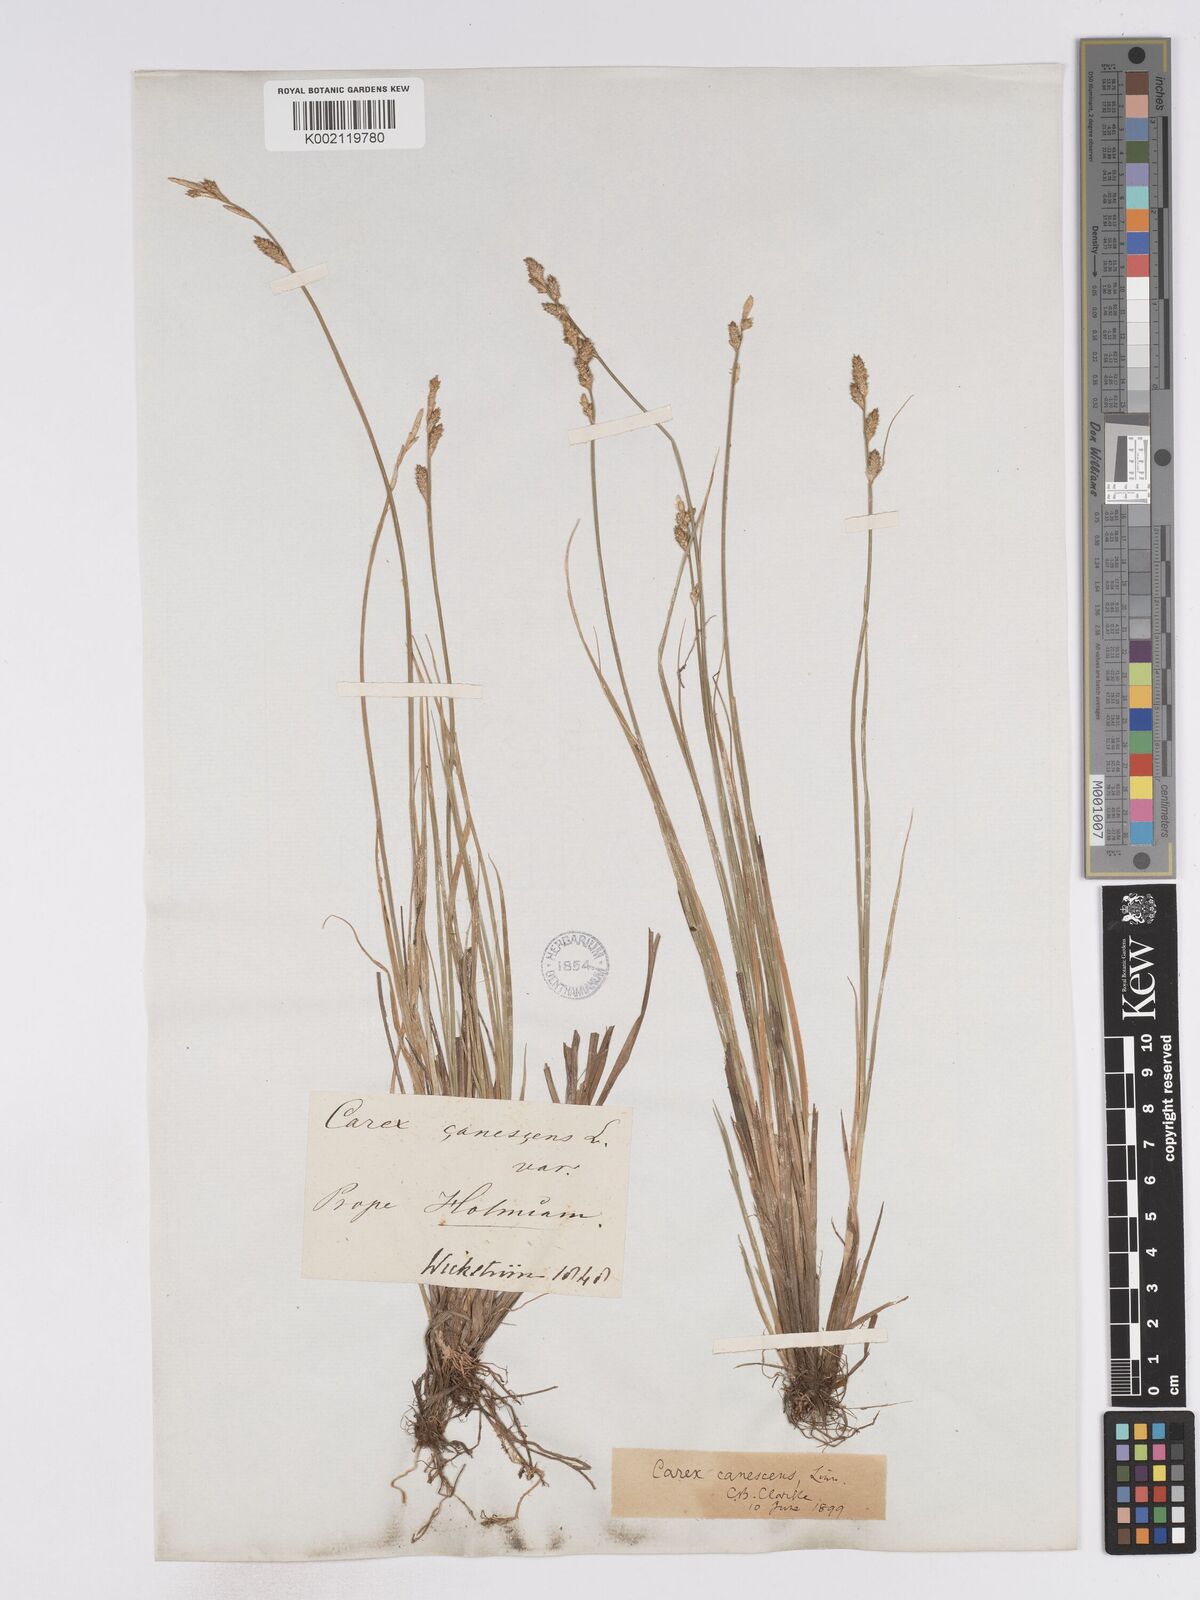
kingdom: Plantae
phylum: Tracheophyta
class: Liliopsida
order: Poales
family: Cyperaceae
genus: Carex
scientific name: Carex curta
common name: White sedge
